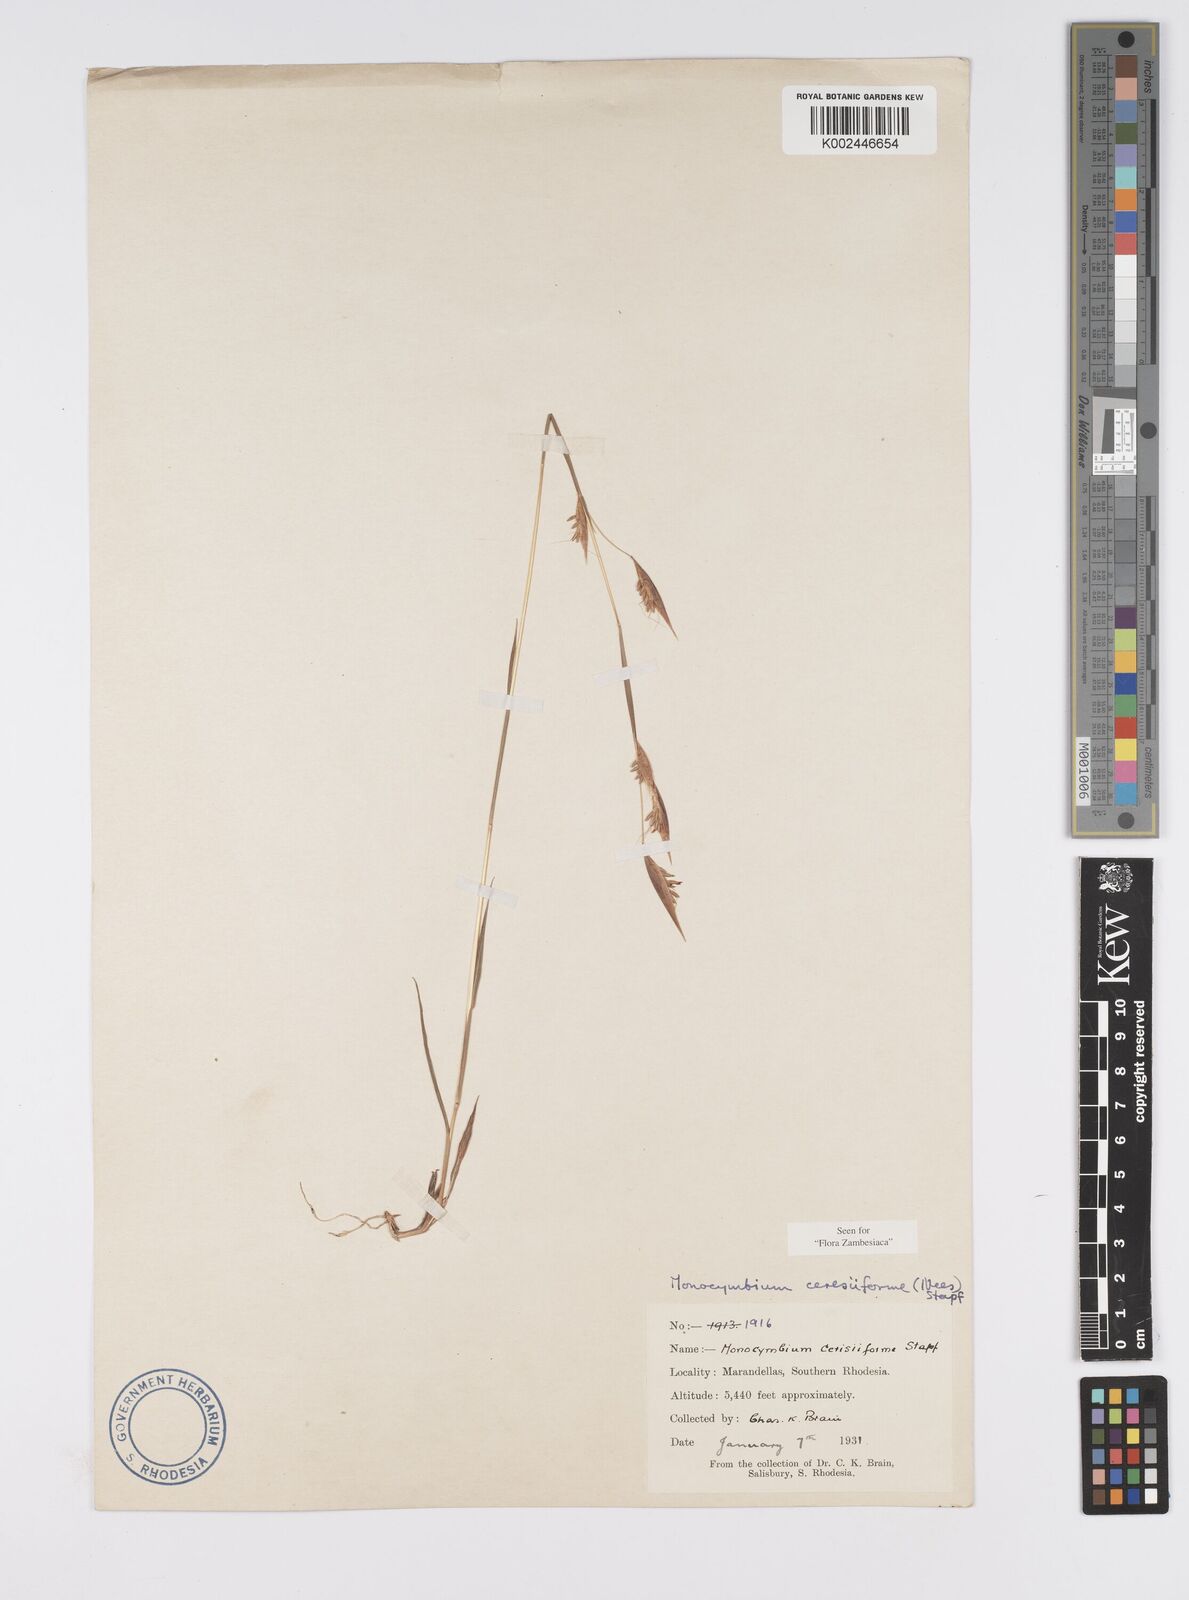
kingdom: Plantae
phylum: Tracheophyta
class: Liliopsida
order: Poales
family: Poaceae
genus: Monocymbium
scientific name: Monocymbium ceresiiforme
